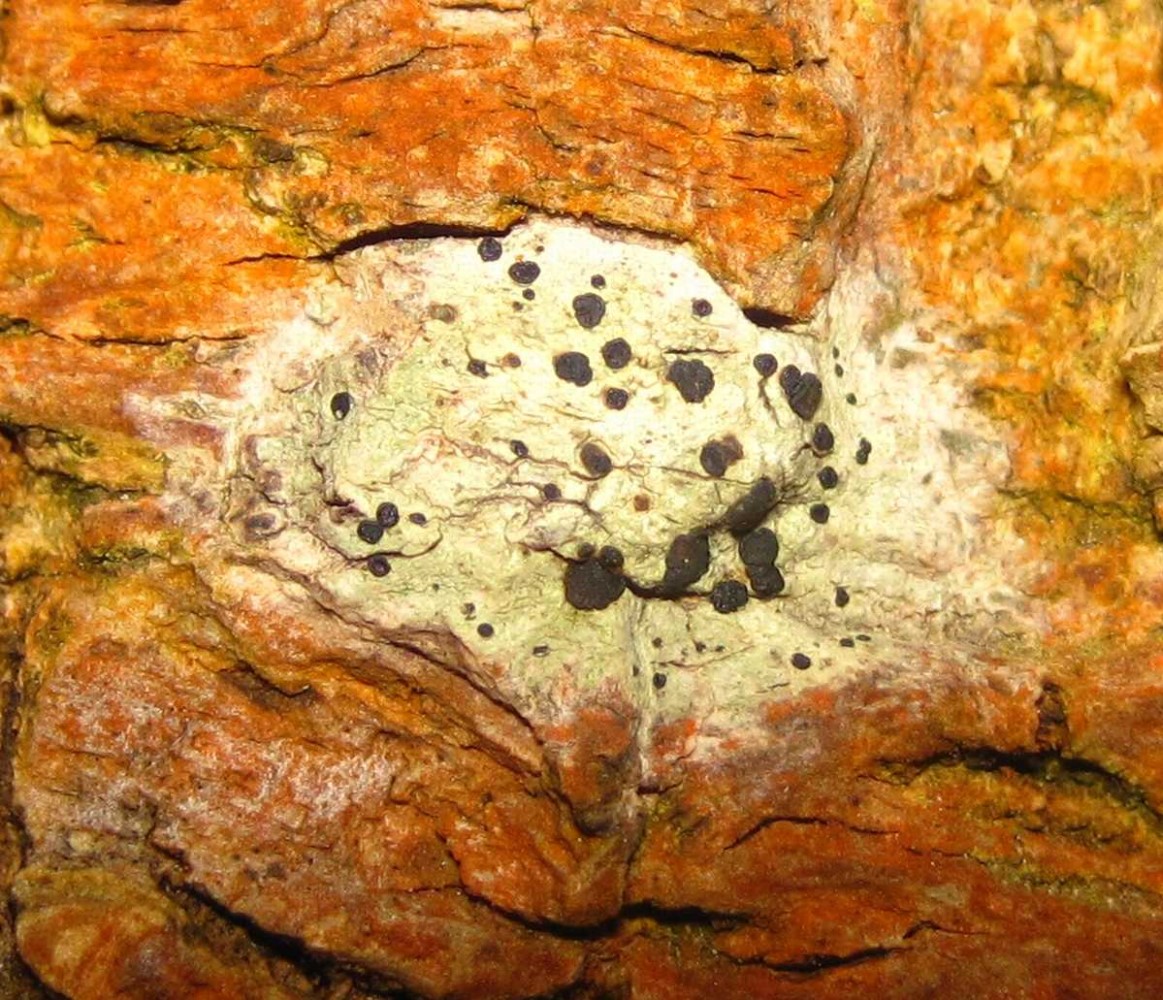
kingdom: Fungi
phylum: Ascomycota
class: Lecanoromycetes
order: Lecanorales
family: Lecanoraceae
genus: Lecidella
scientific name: Lecidella elaeochroma
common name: grågrøn skivelav
